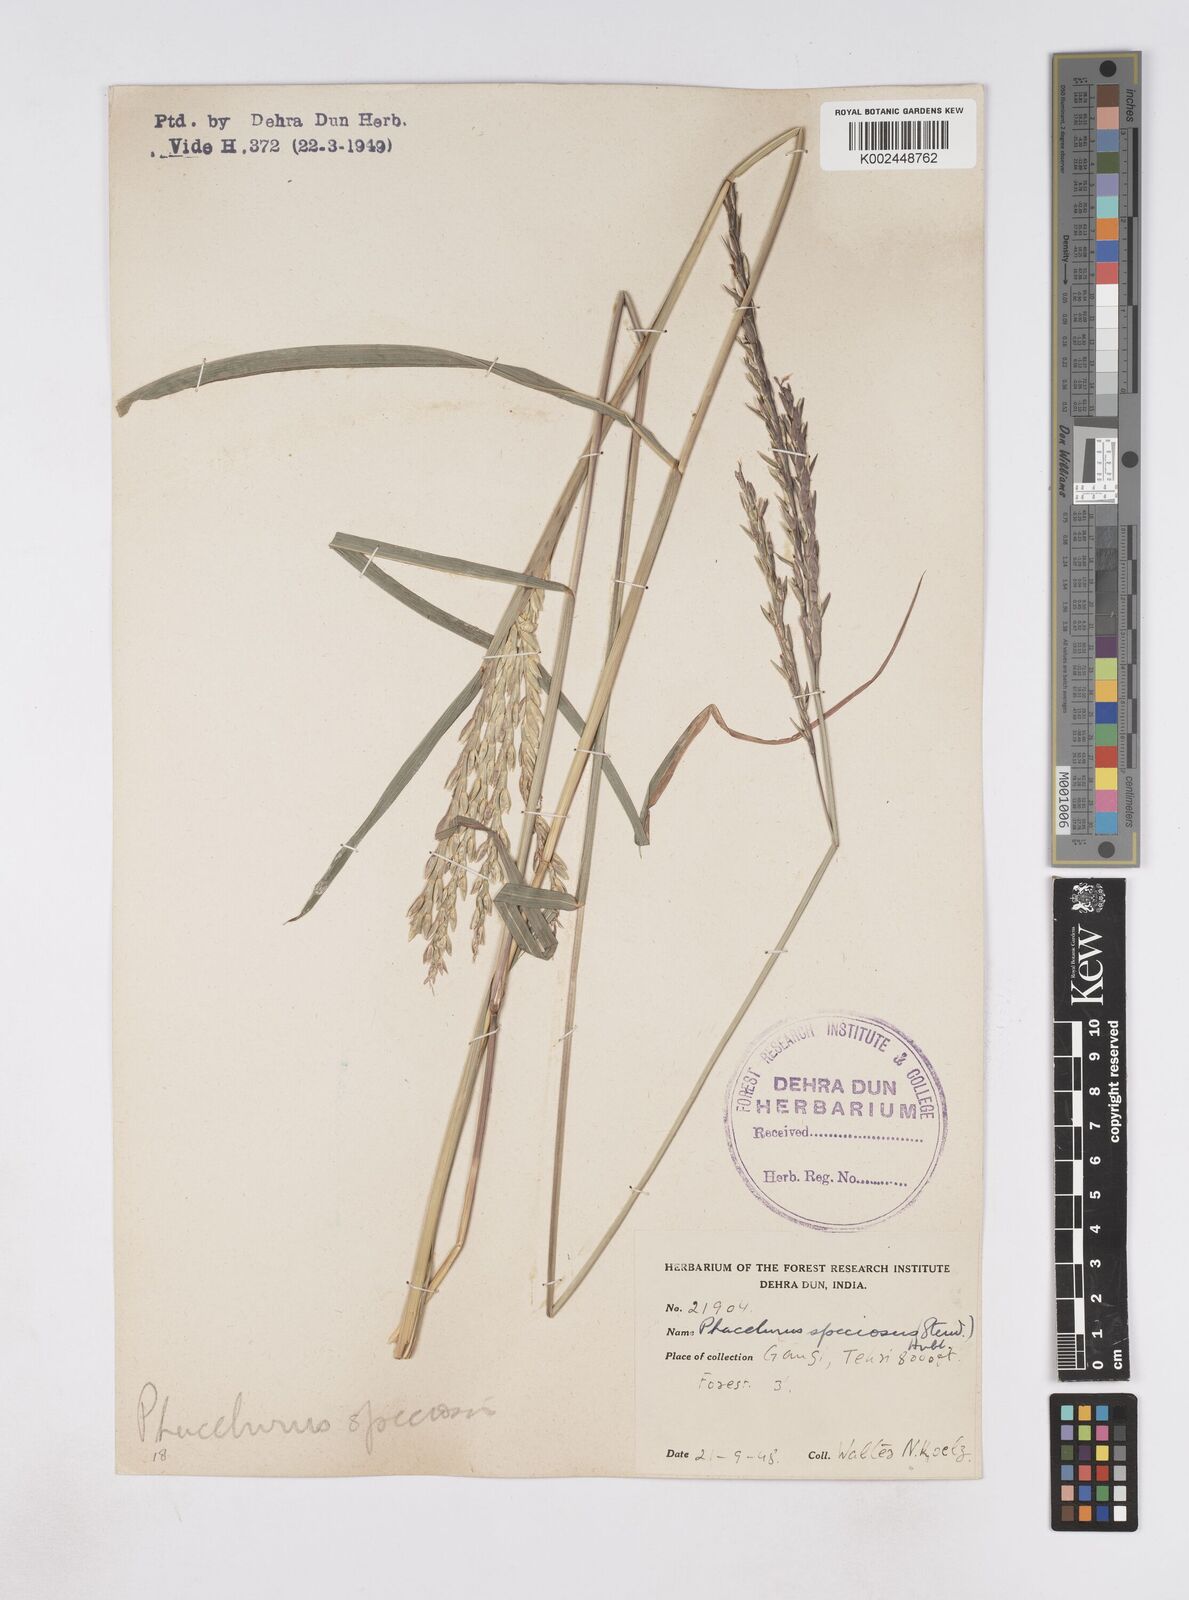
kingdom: Plantae
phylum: Tracheophyta
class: Liliopsida
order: Poales
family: Poaceae
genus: Phacelurus
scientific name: Phacelurus speciosus
